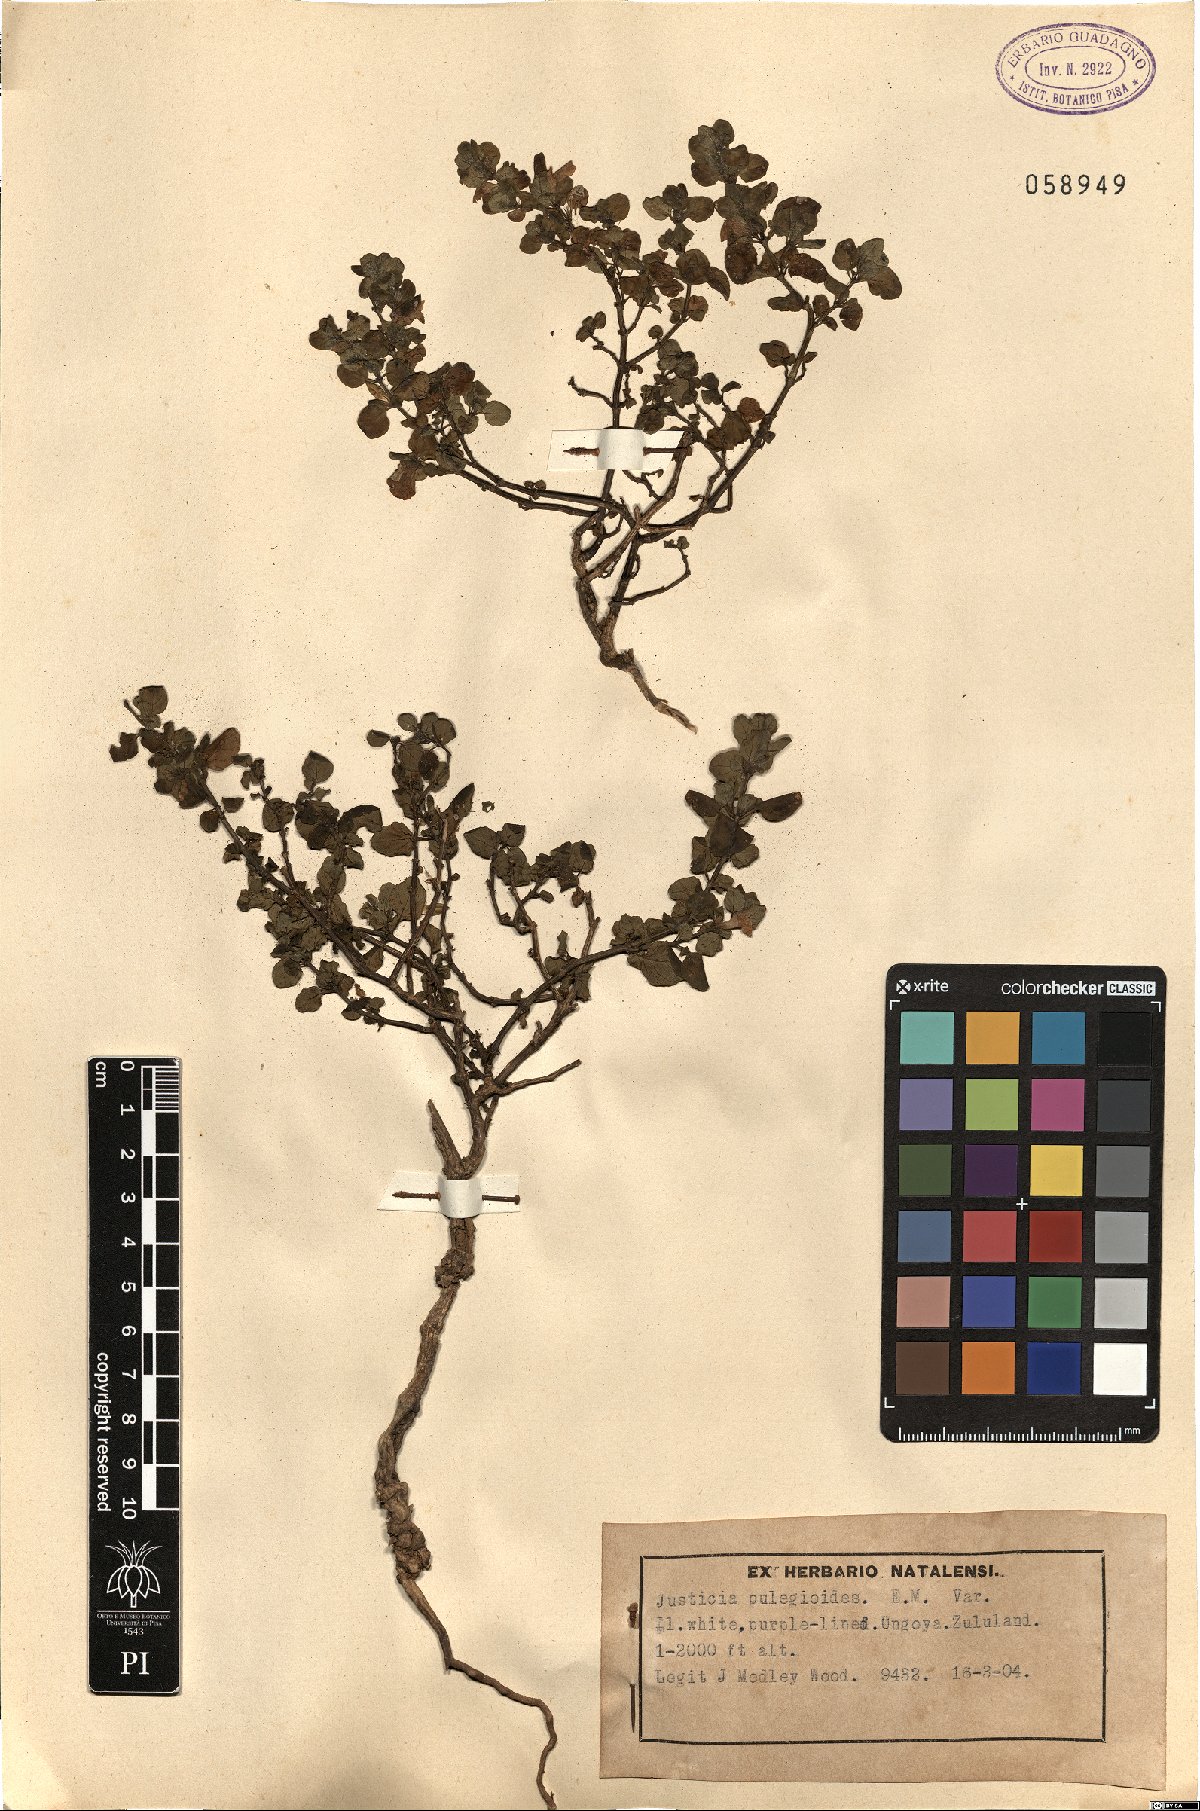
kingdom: Plantae
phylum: Tracheophyta
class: Magnoliopsida
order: Lamiales
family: Acanthaceae
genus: Justicia
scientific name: Justicia protracta
